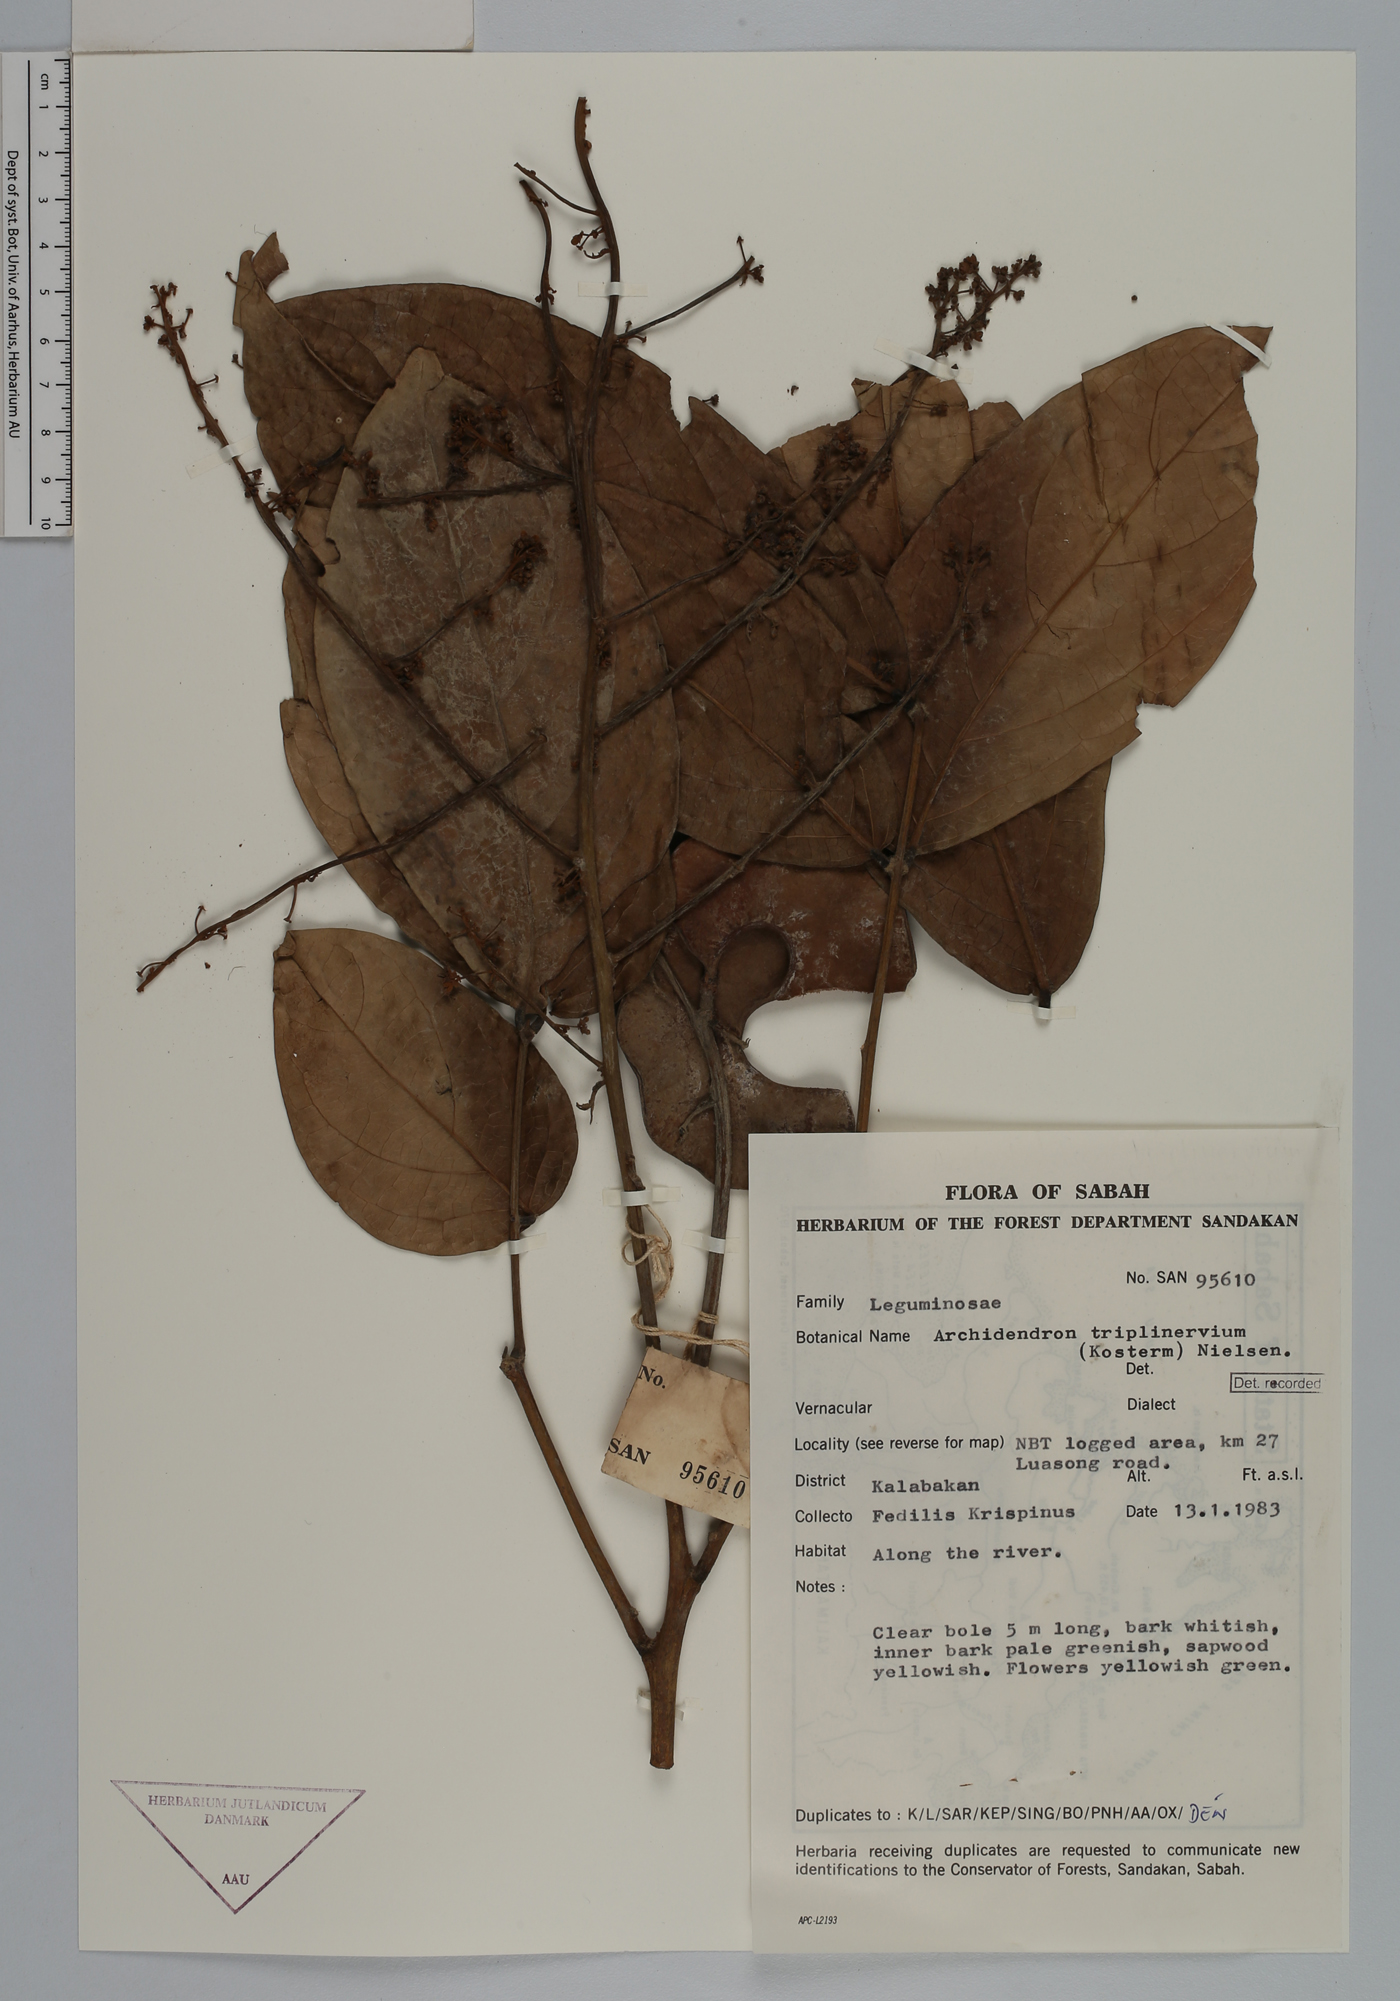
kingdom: Plantae
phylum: Tracheophyta
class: Magnoliopsida
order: Fabales
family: Fabaceae
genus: Archidendron
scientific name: Archidendron triplinervium
